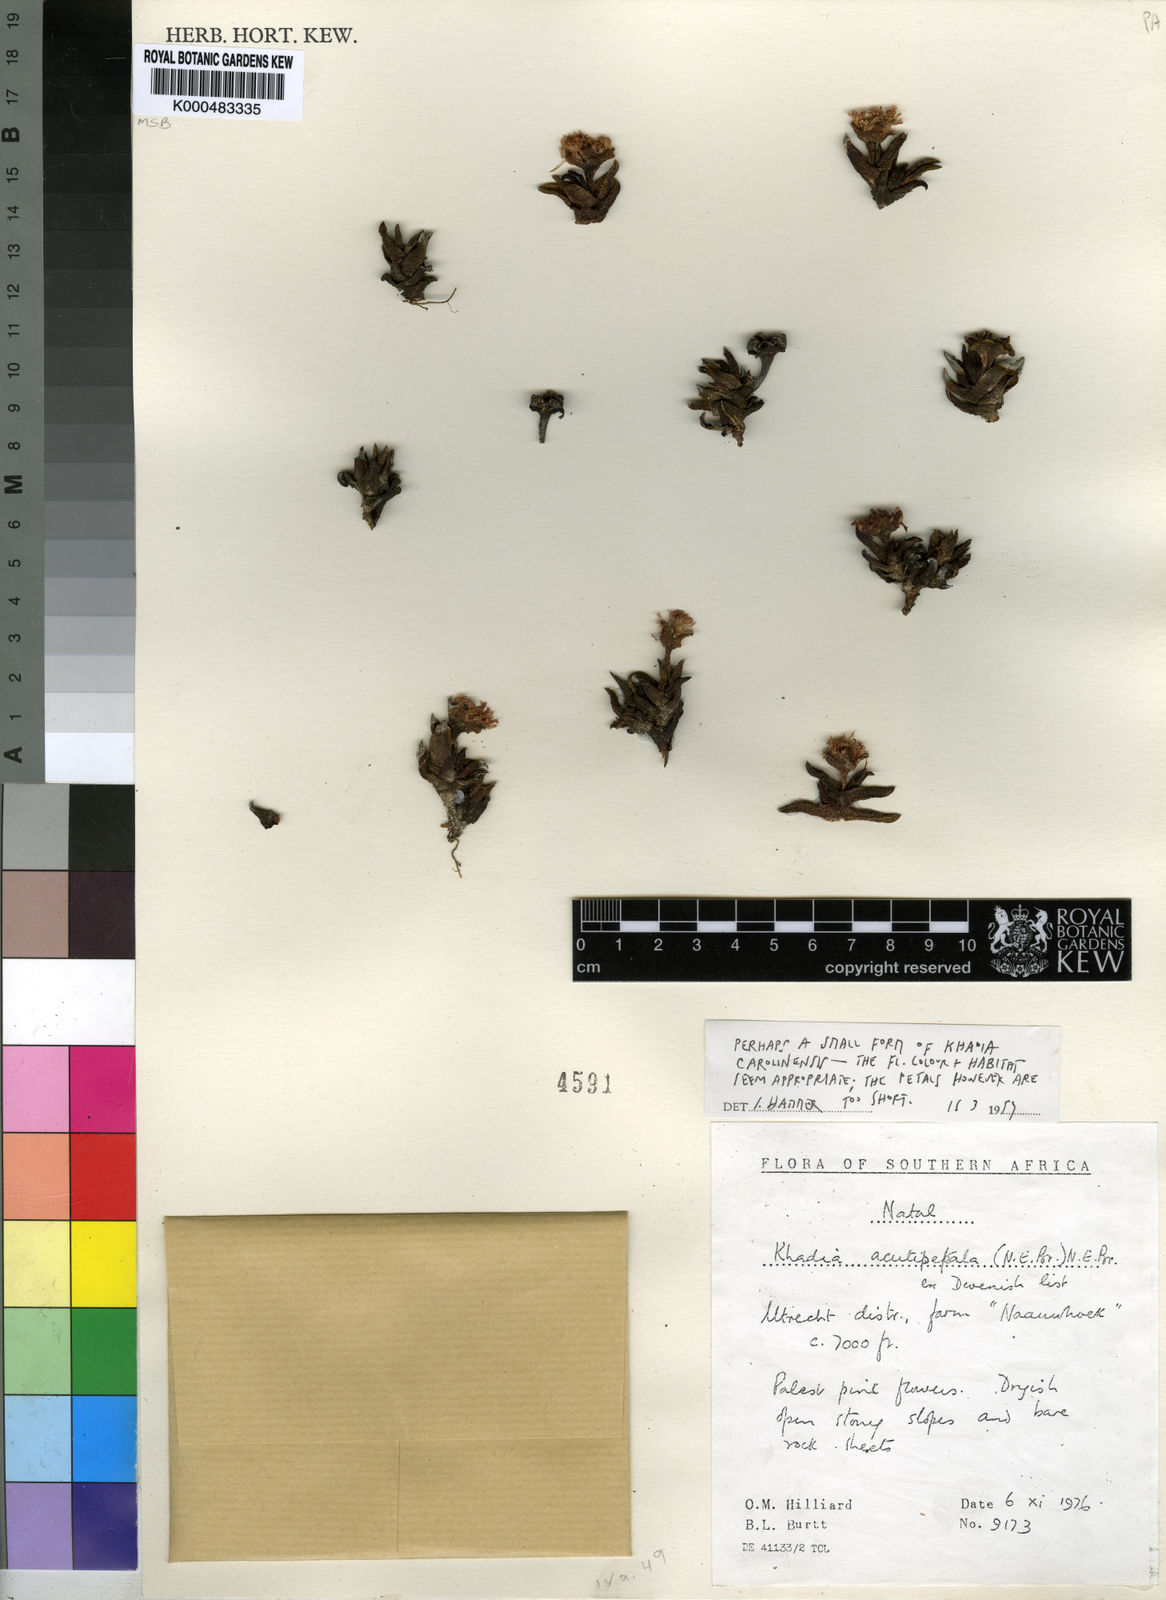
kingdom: Plantae
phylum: Tracheophyta
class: Magnoliopsida
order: Caryophyllales
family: Aizoaceae
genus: Khadia
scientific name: Khadia carolinensis
